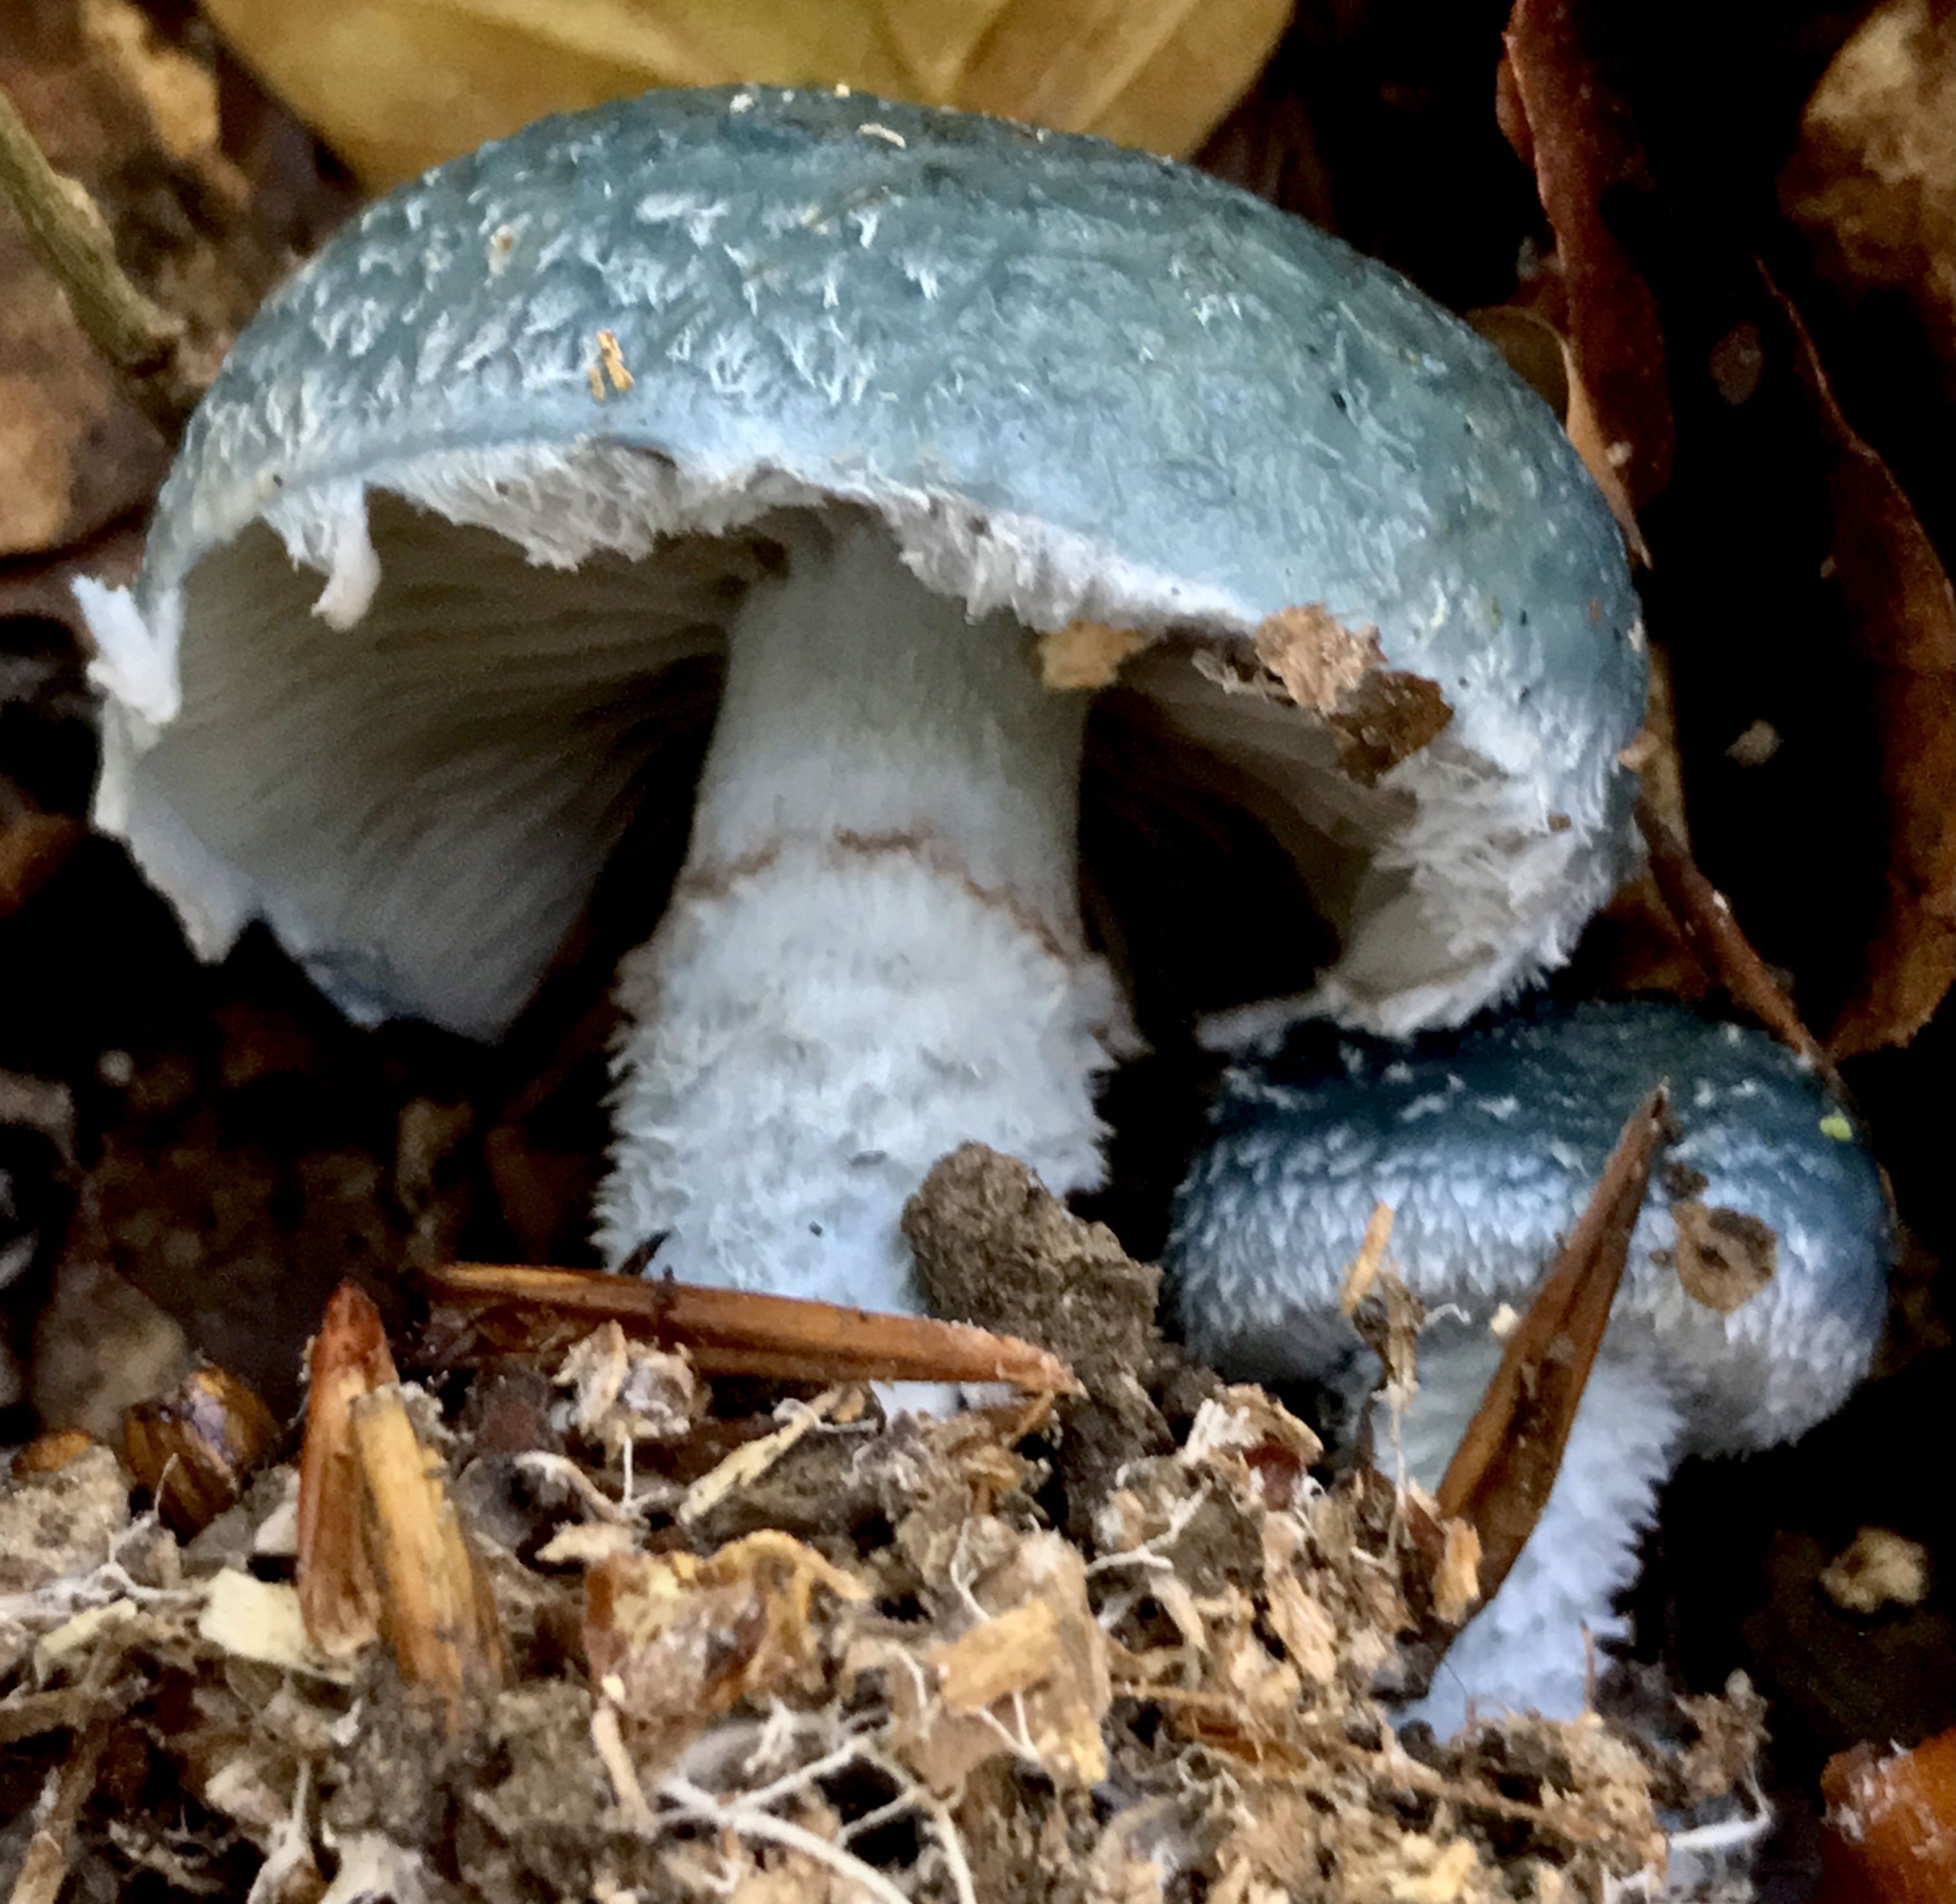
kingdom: Fungi
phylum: Basidiomycota
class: Agaricomycetes
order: Agaricales
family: Strophariaceae
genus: Stropharia
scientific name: Stropharia aeruginosa
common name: spanskgrøn bredblad
